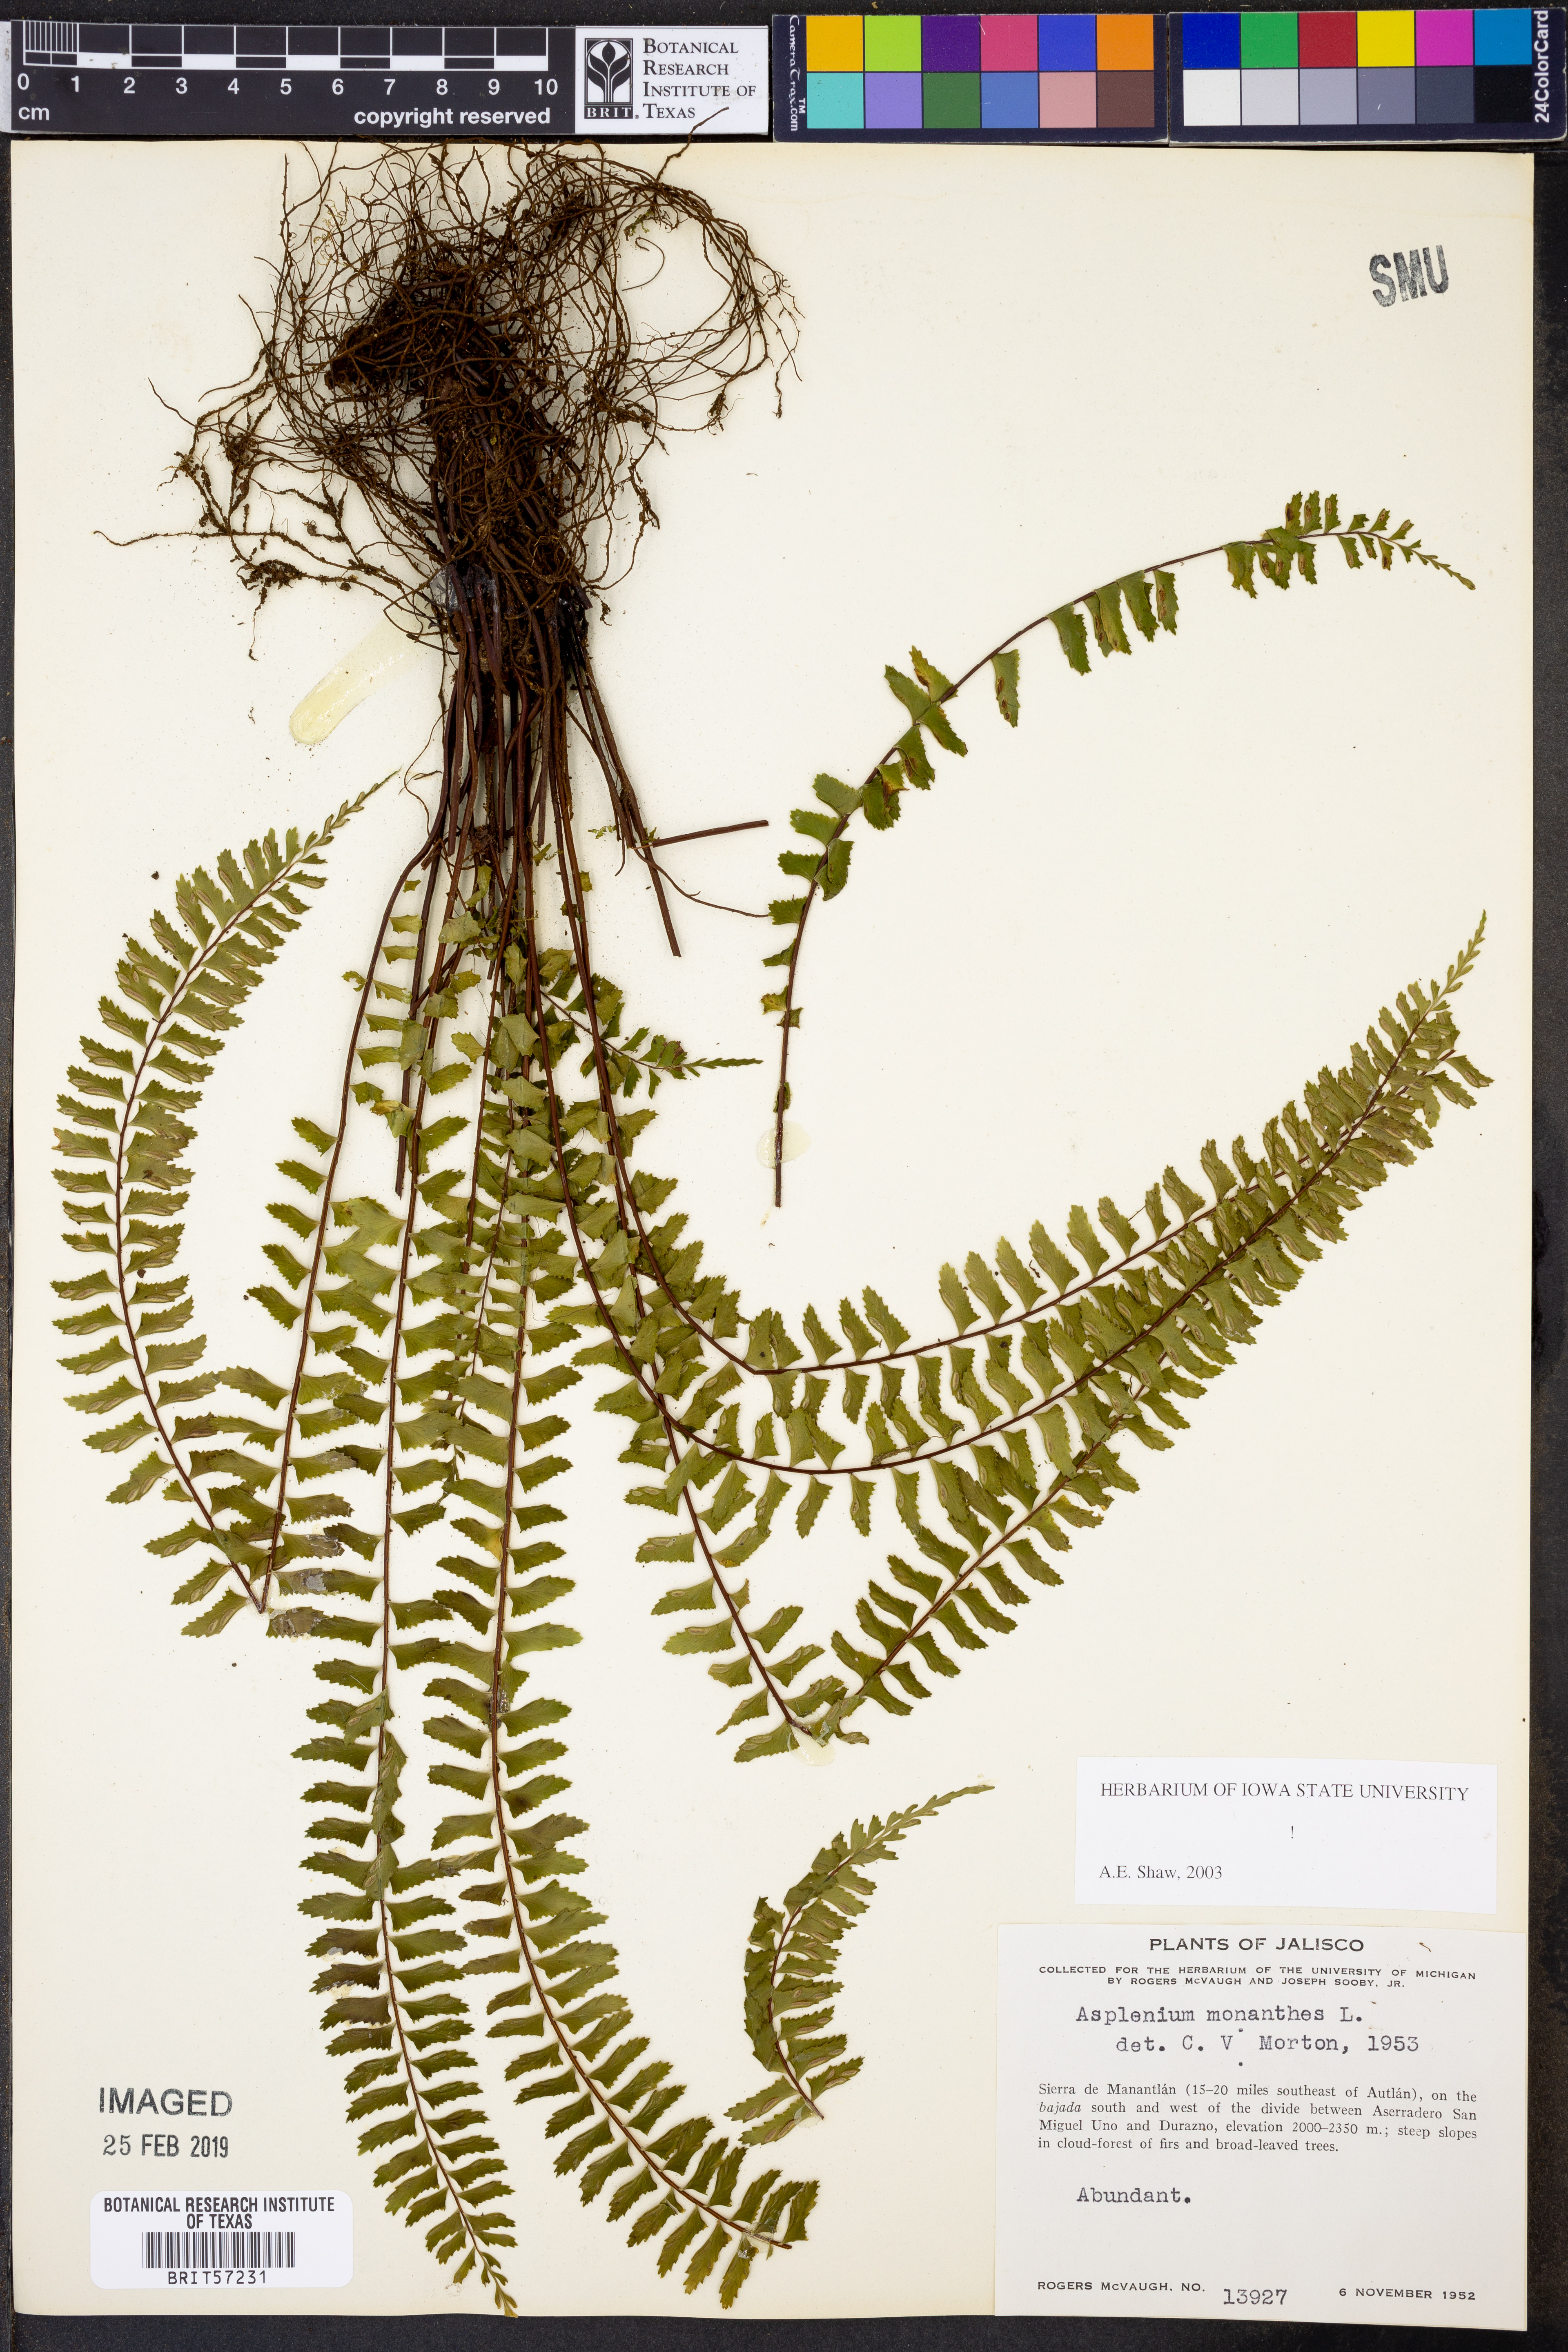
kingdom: Plantae
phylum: Tracheophyta
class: Polypodiopsida
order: Polypodiales
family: Aspleniaceae
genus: Asplenium
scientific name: Asplenium monanthes
